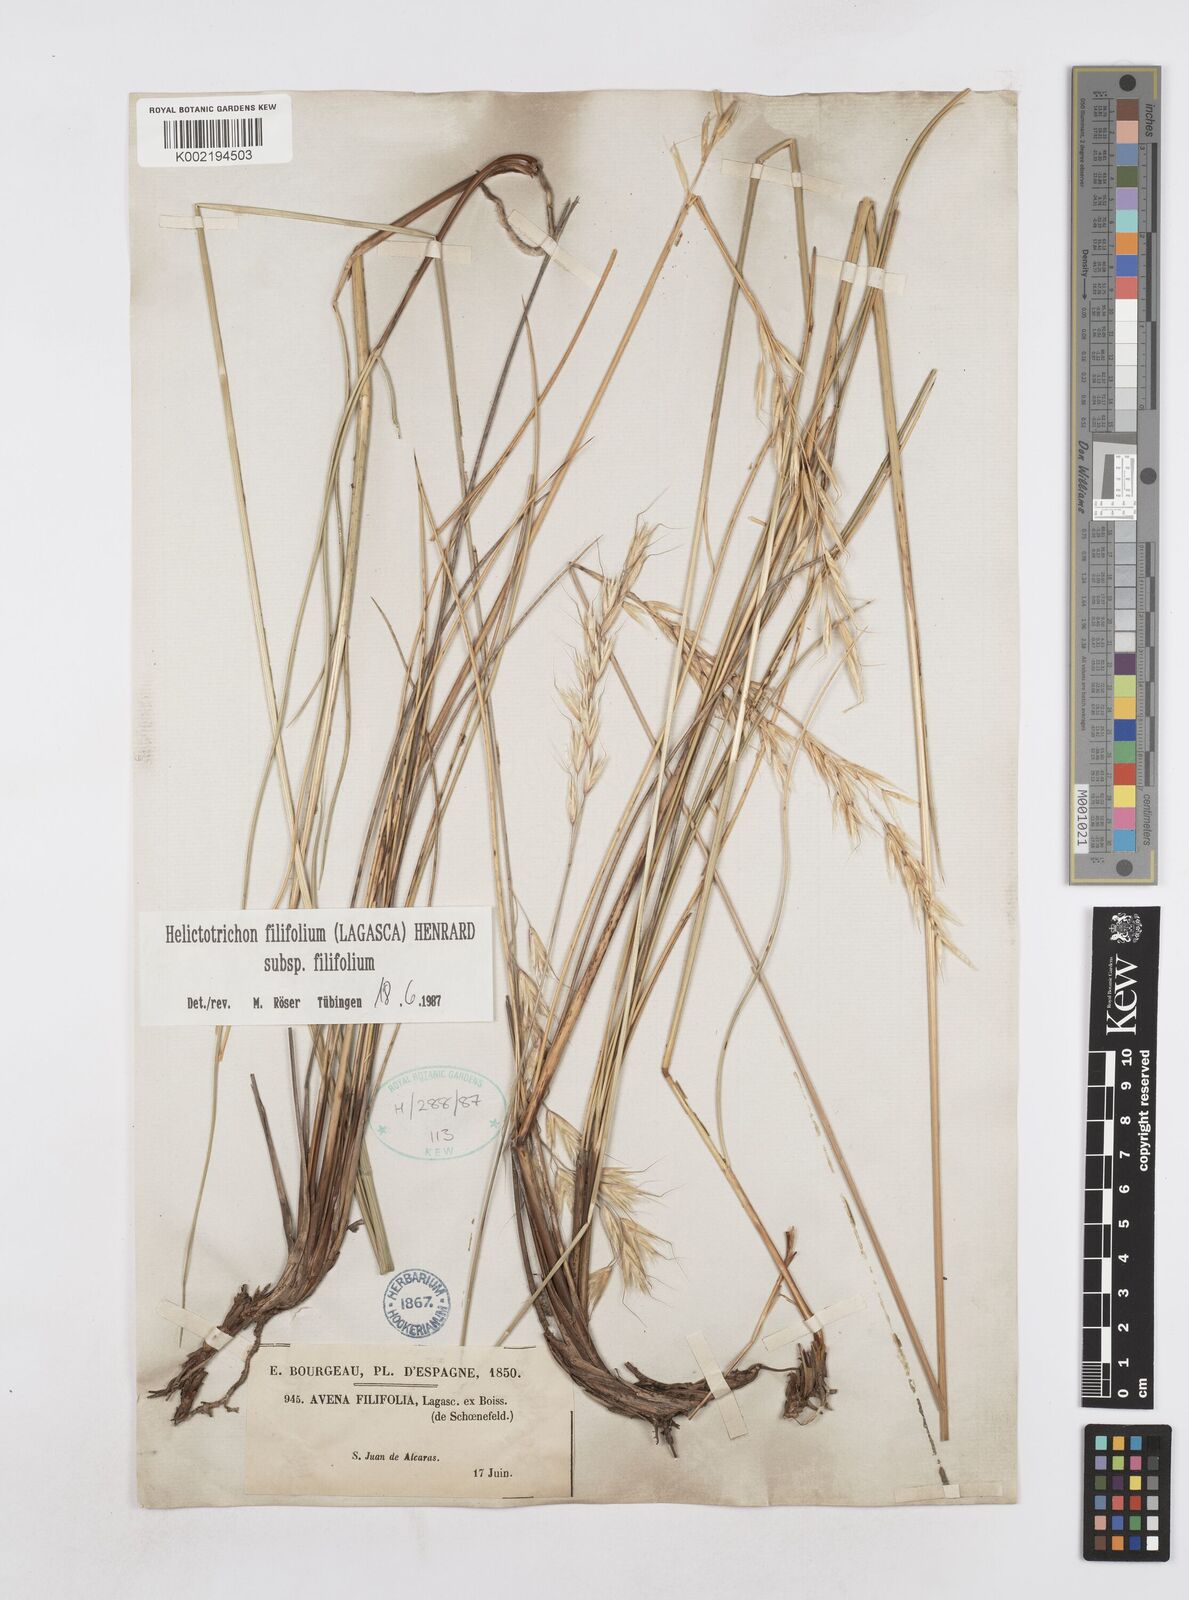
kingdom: Plantae
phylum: Tracheophyta
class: Liliopsida
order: Poales
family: Poaceae
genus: Helictotrichon
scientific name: Helictotrichon filifolium
